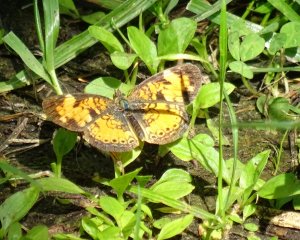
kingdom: Animalia
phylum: Arthropoda
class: Insecta
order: Lepidoptera
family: Nymphalidae
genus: Phyciodes
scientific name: Phyciodes tharos
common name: Northern Crescent
